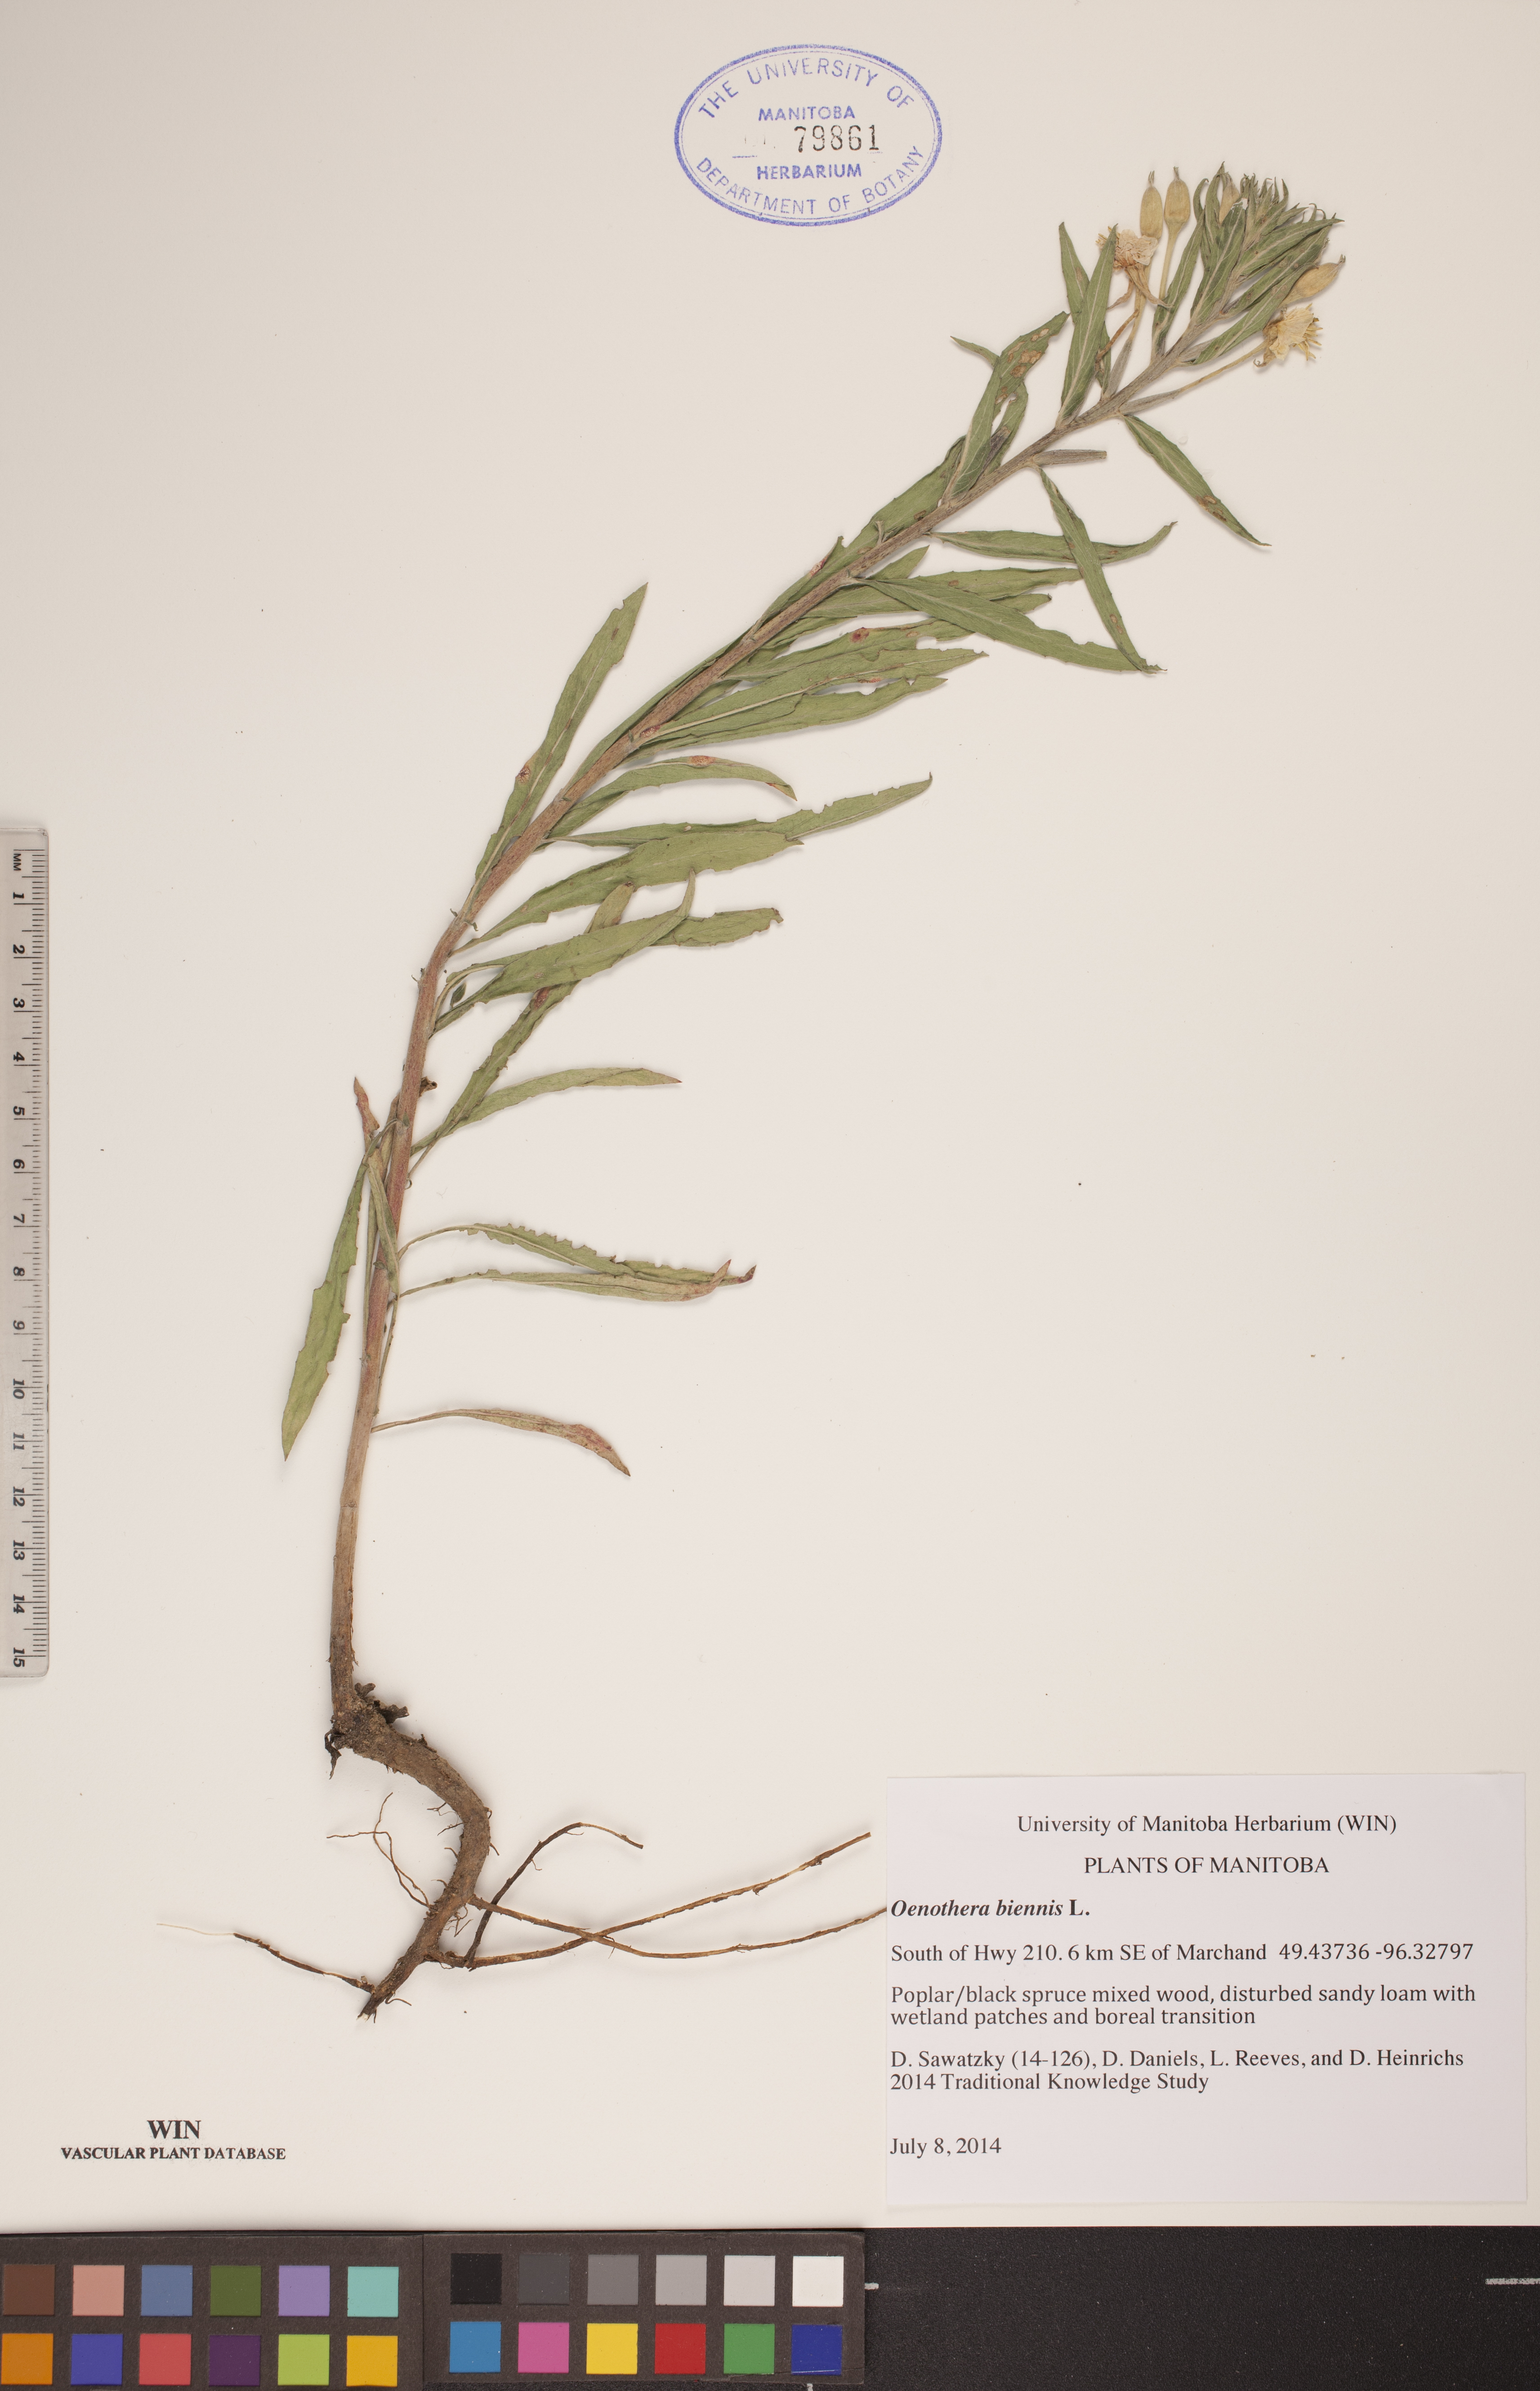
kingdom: Plantae
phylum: Tracheophyta
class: Magnoliopsida
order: Myrtales
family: Onagraceae
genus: Oenothera
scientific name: Oenothera biennis
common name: Common evening-primrose
